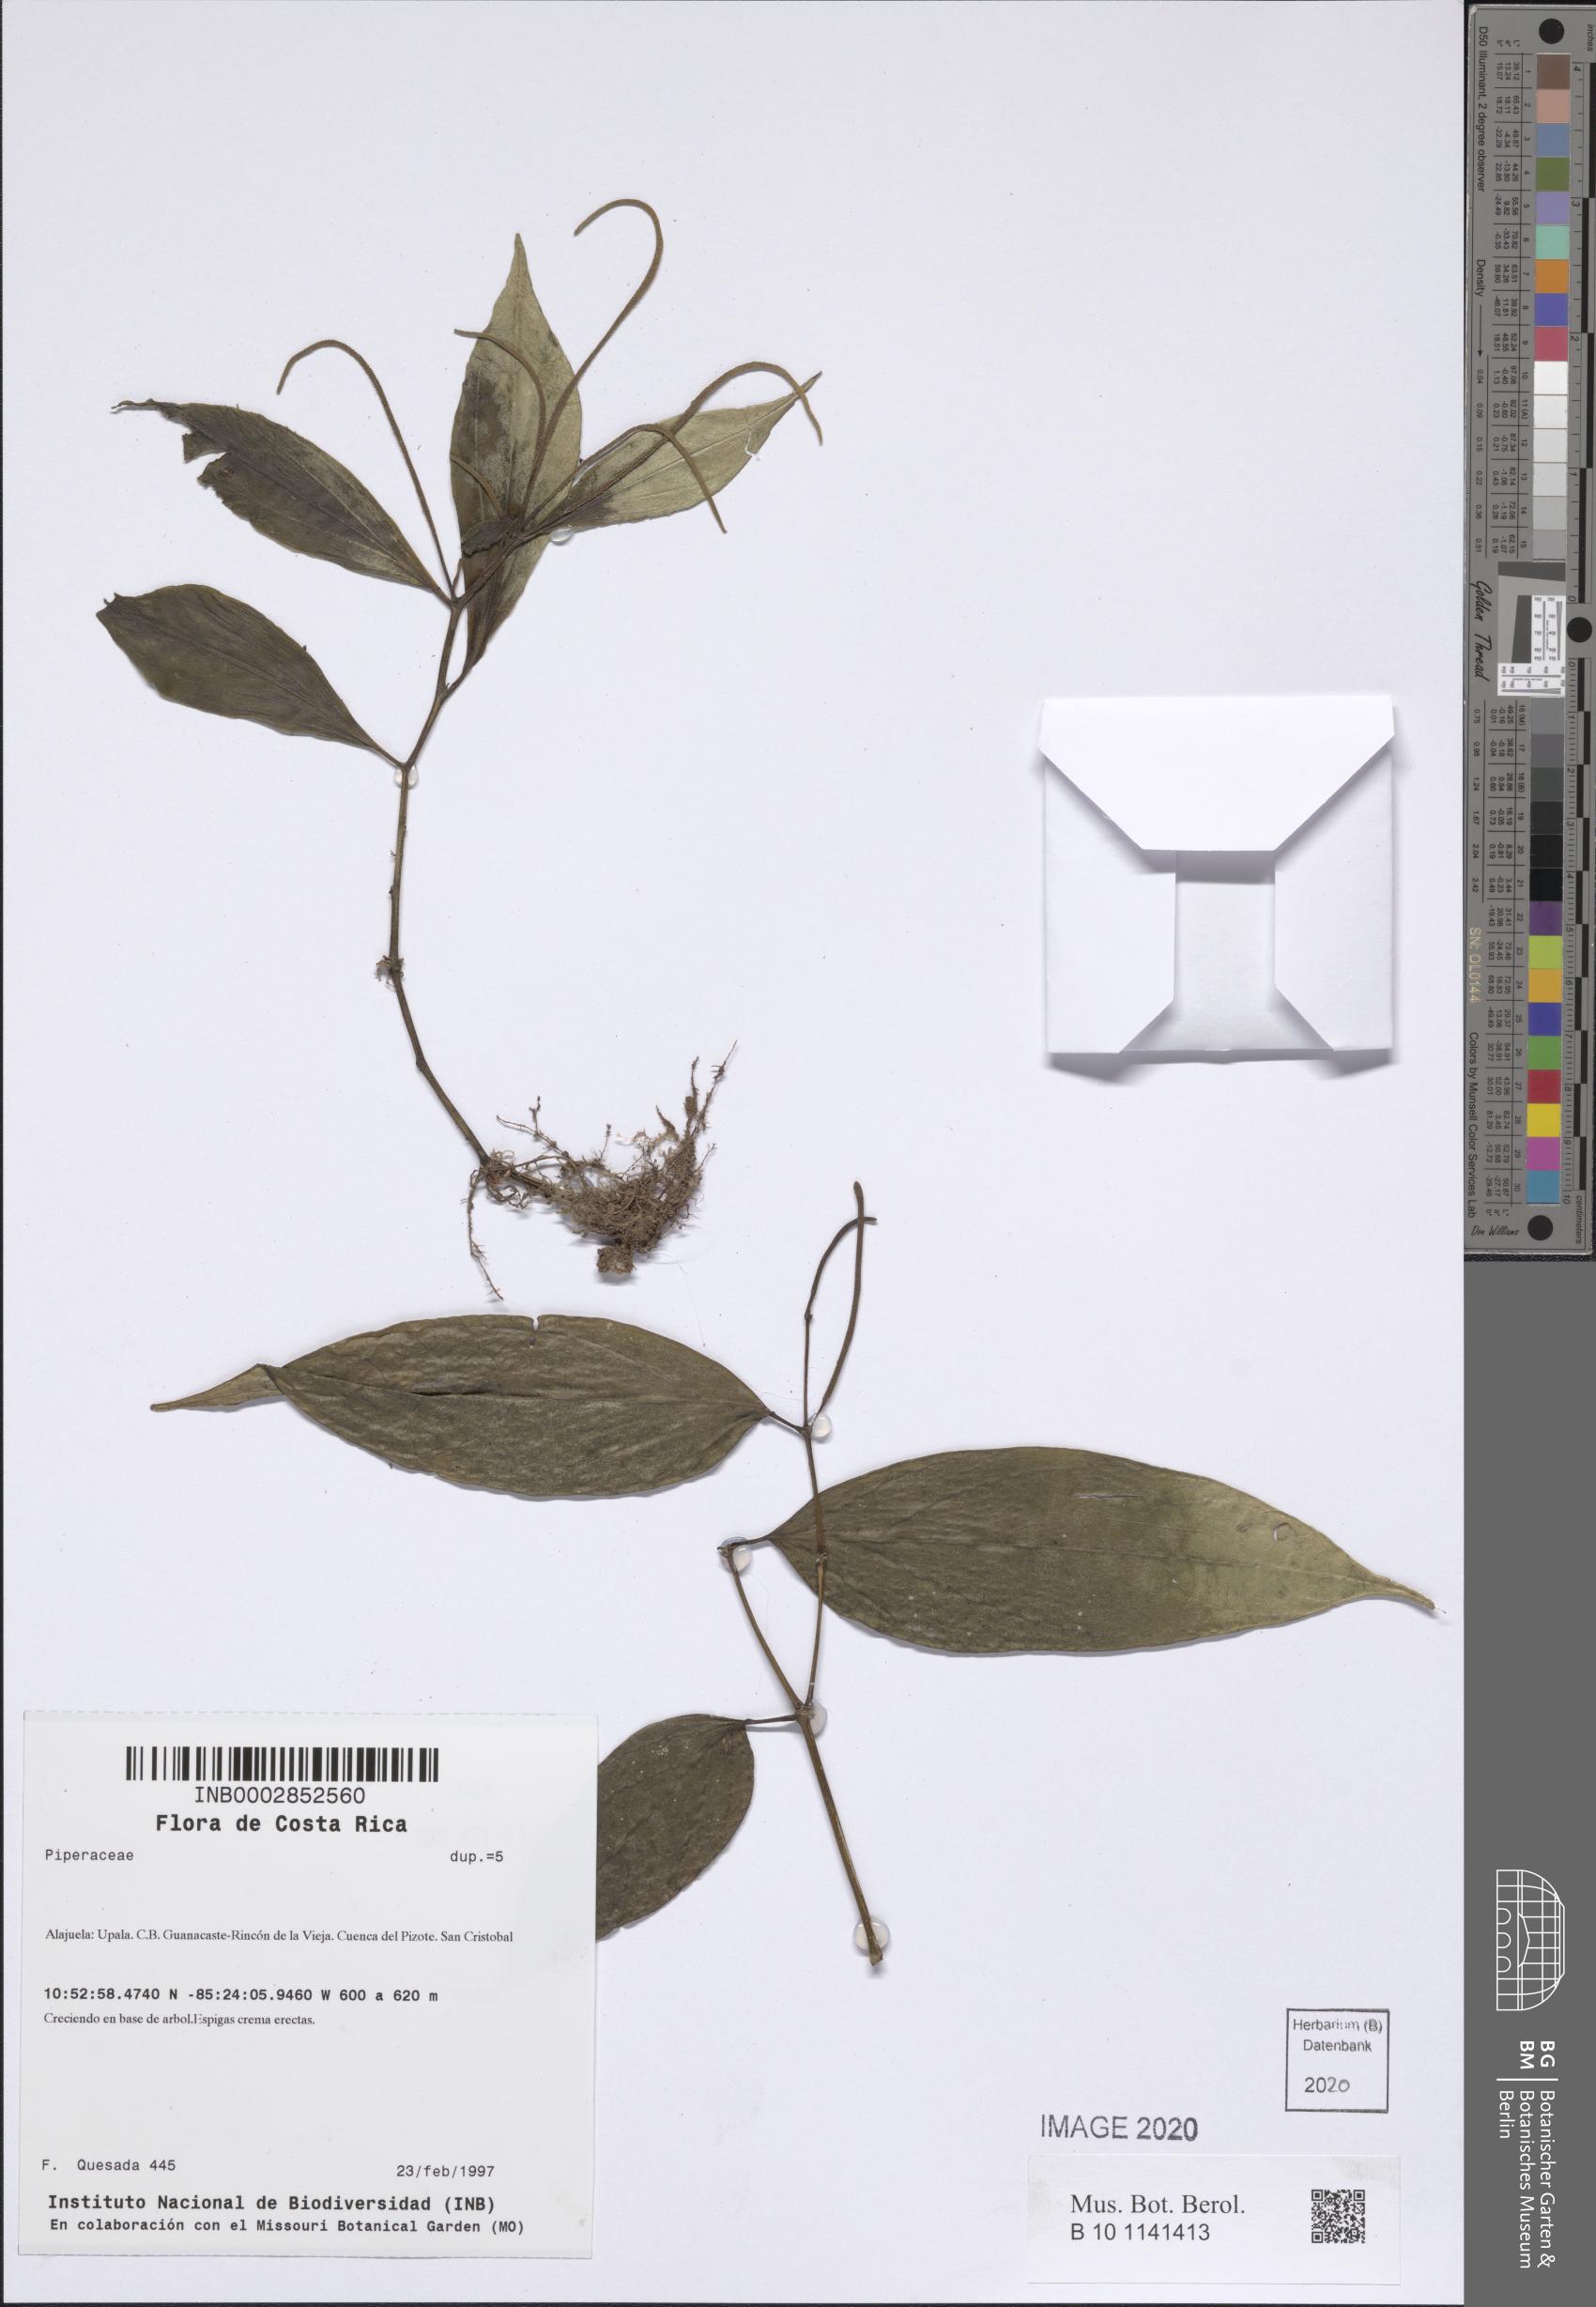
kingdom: Plantae
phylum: Tracheophyta
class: Magnoliopsida
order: Piperales
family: Piperaceae
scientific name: Piperaceae
